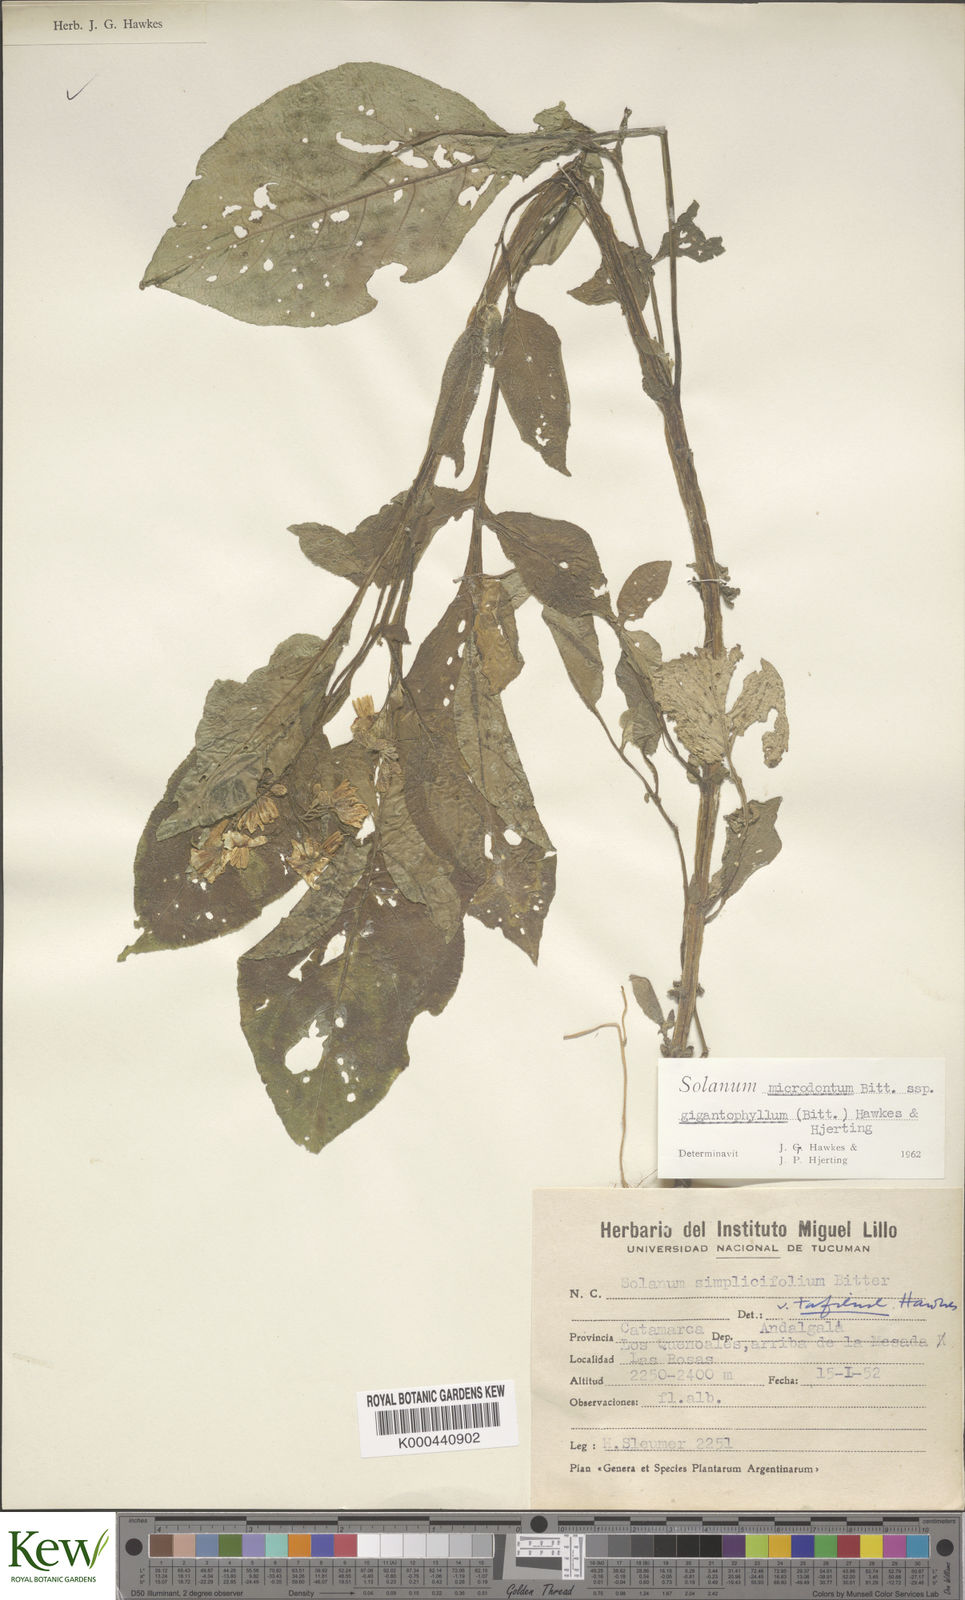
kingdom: Plantae
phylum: Tracheophyta
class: Magnoliopsida
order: Solanales
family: Solanaceae
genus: Solanum
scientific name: Solanum microdontum
